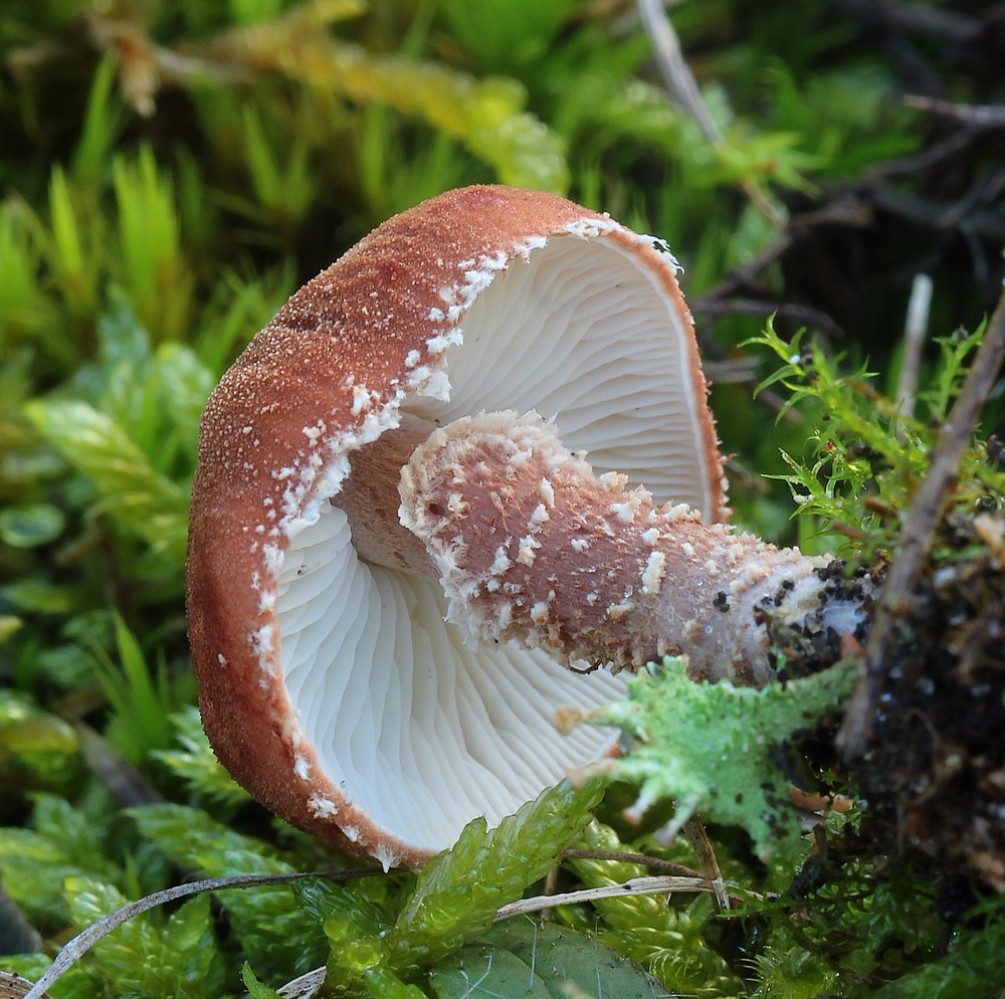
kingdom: Fungi
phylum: Basidiomycota
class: Agaricomycetes
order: Agaricales
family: Agaricaceae
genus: Cystodermella
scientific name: Cystodermella granulosa
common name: kliddet grynhat
